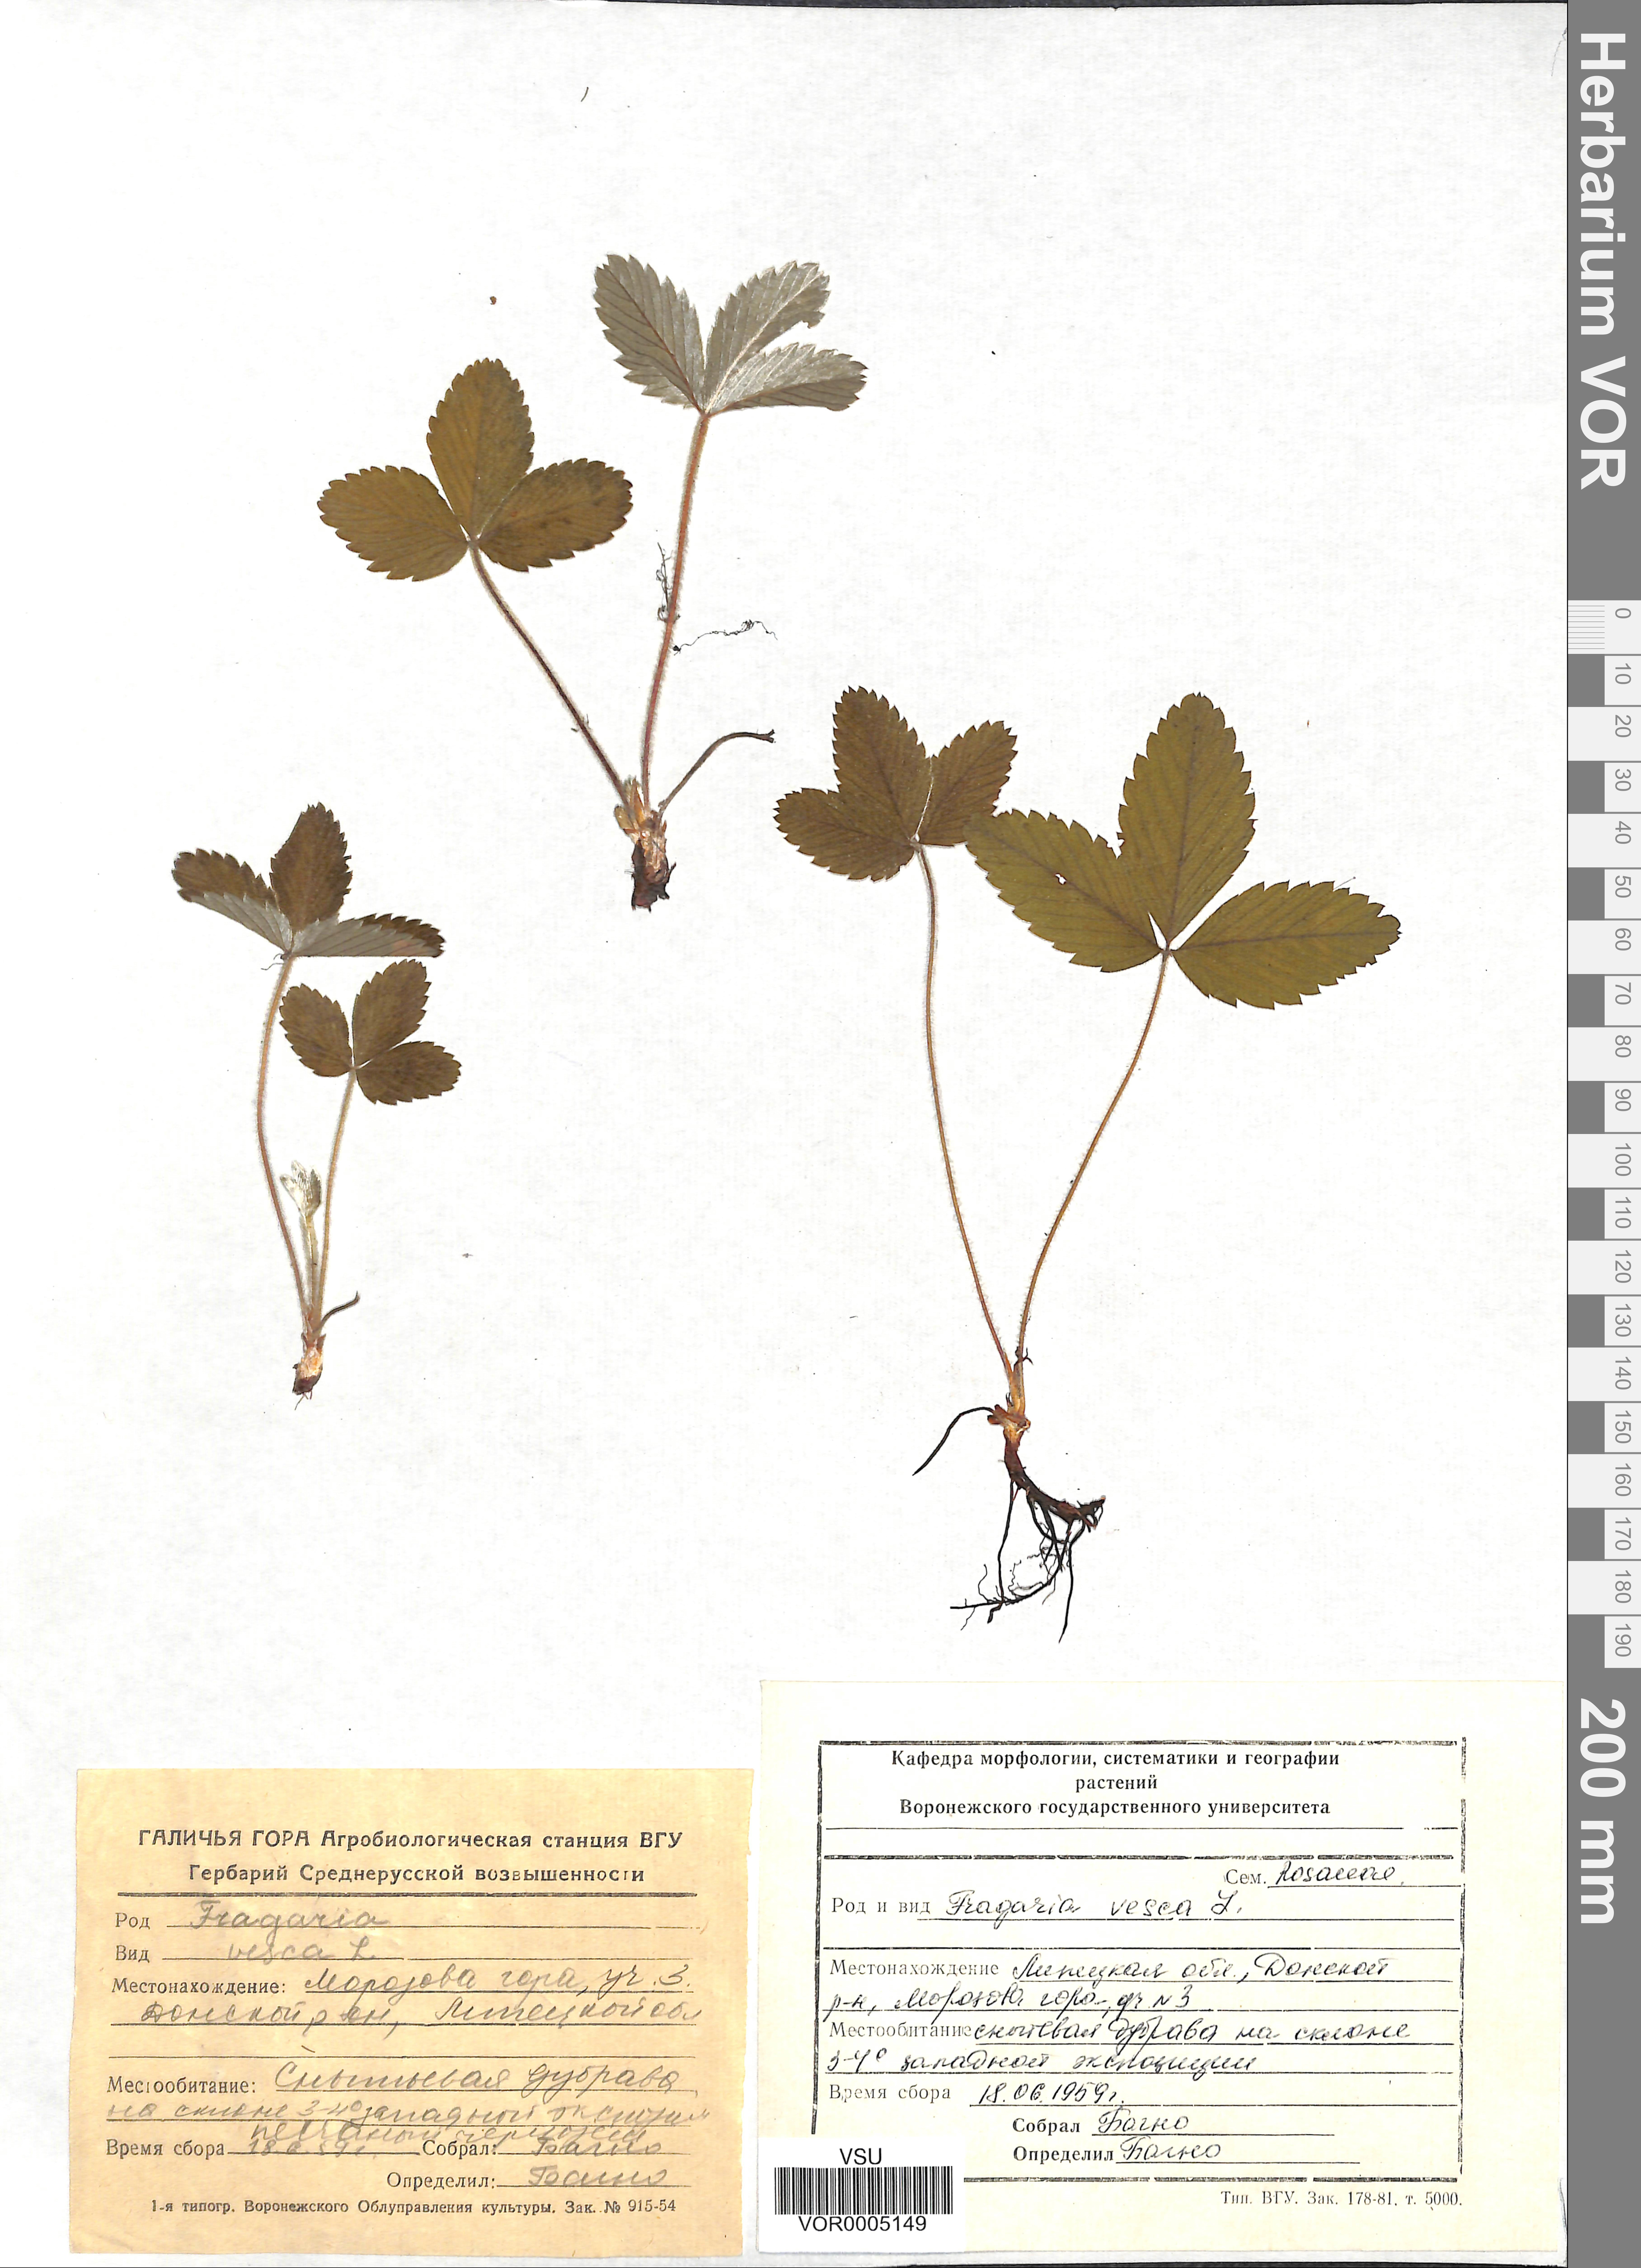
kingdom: Plantae
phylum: Tracheophyta
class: Magnoliopsida
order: Rosales
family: Rosaceae
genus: Fragaria
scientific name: Fragaria vesca
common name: Wild strawberry
